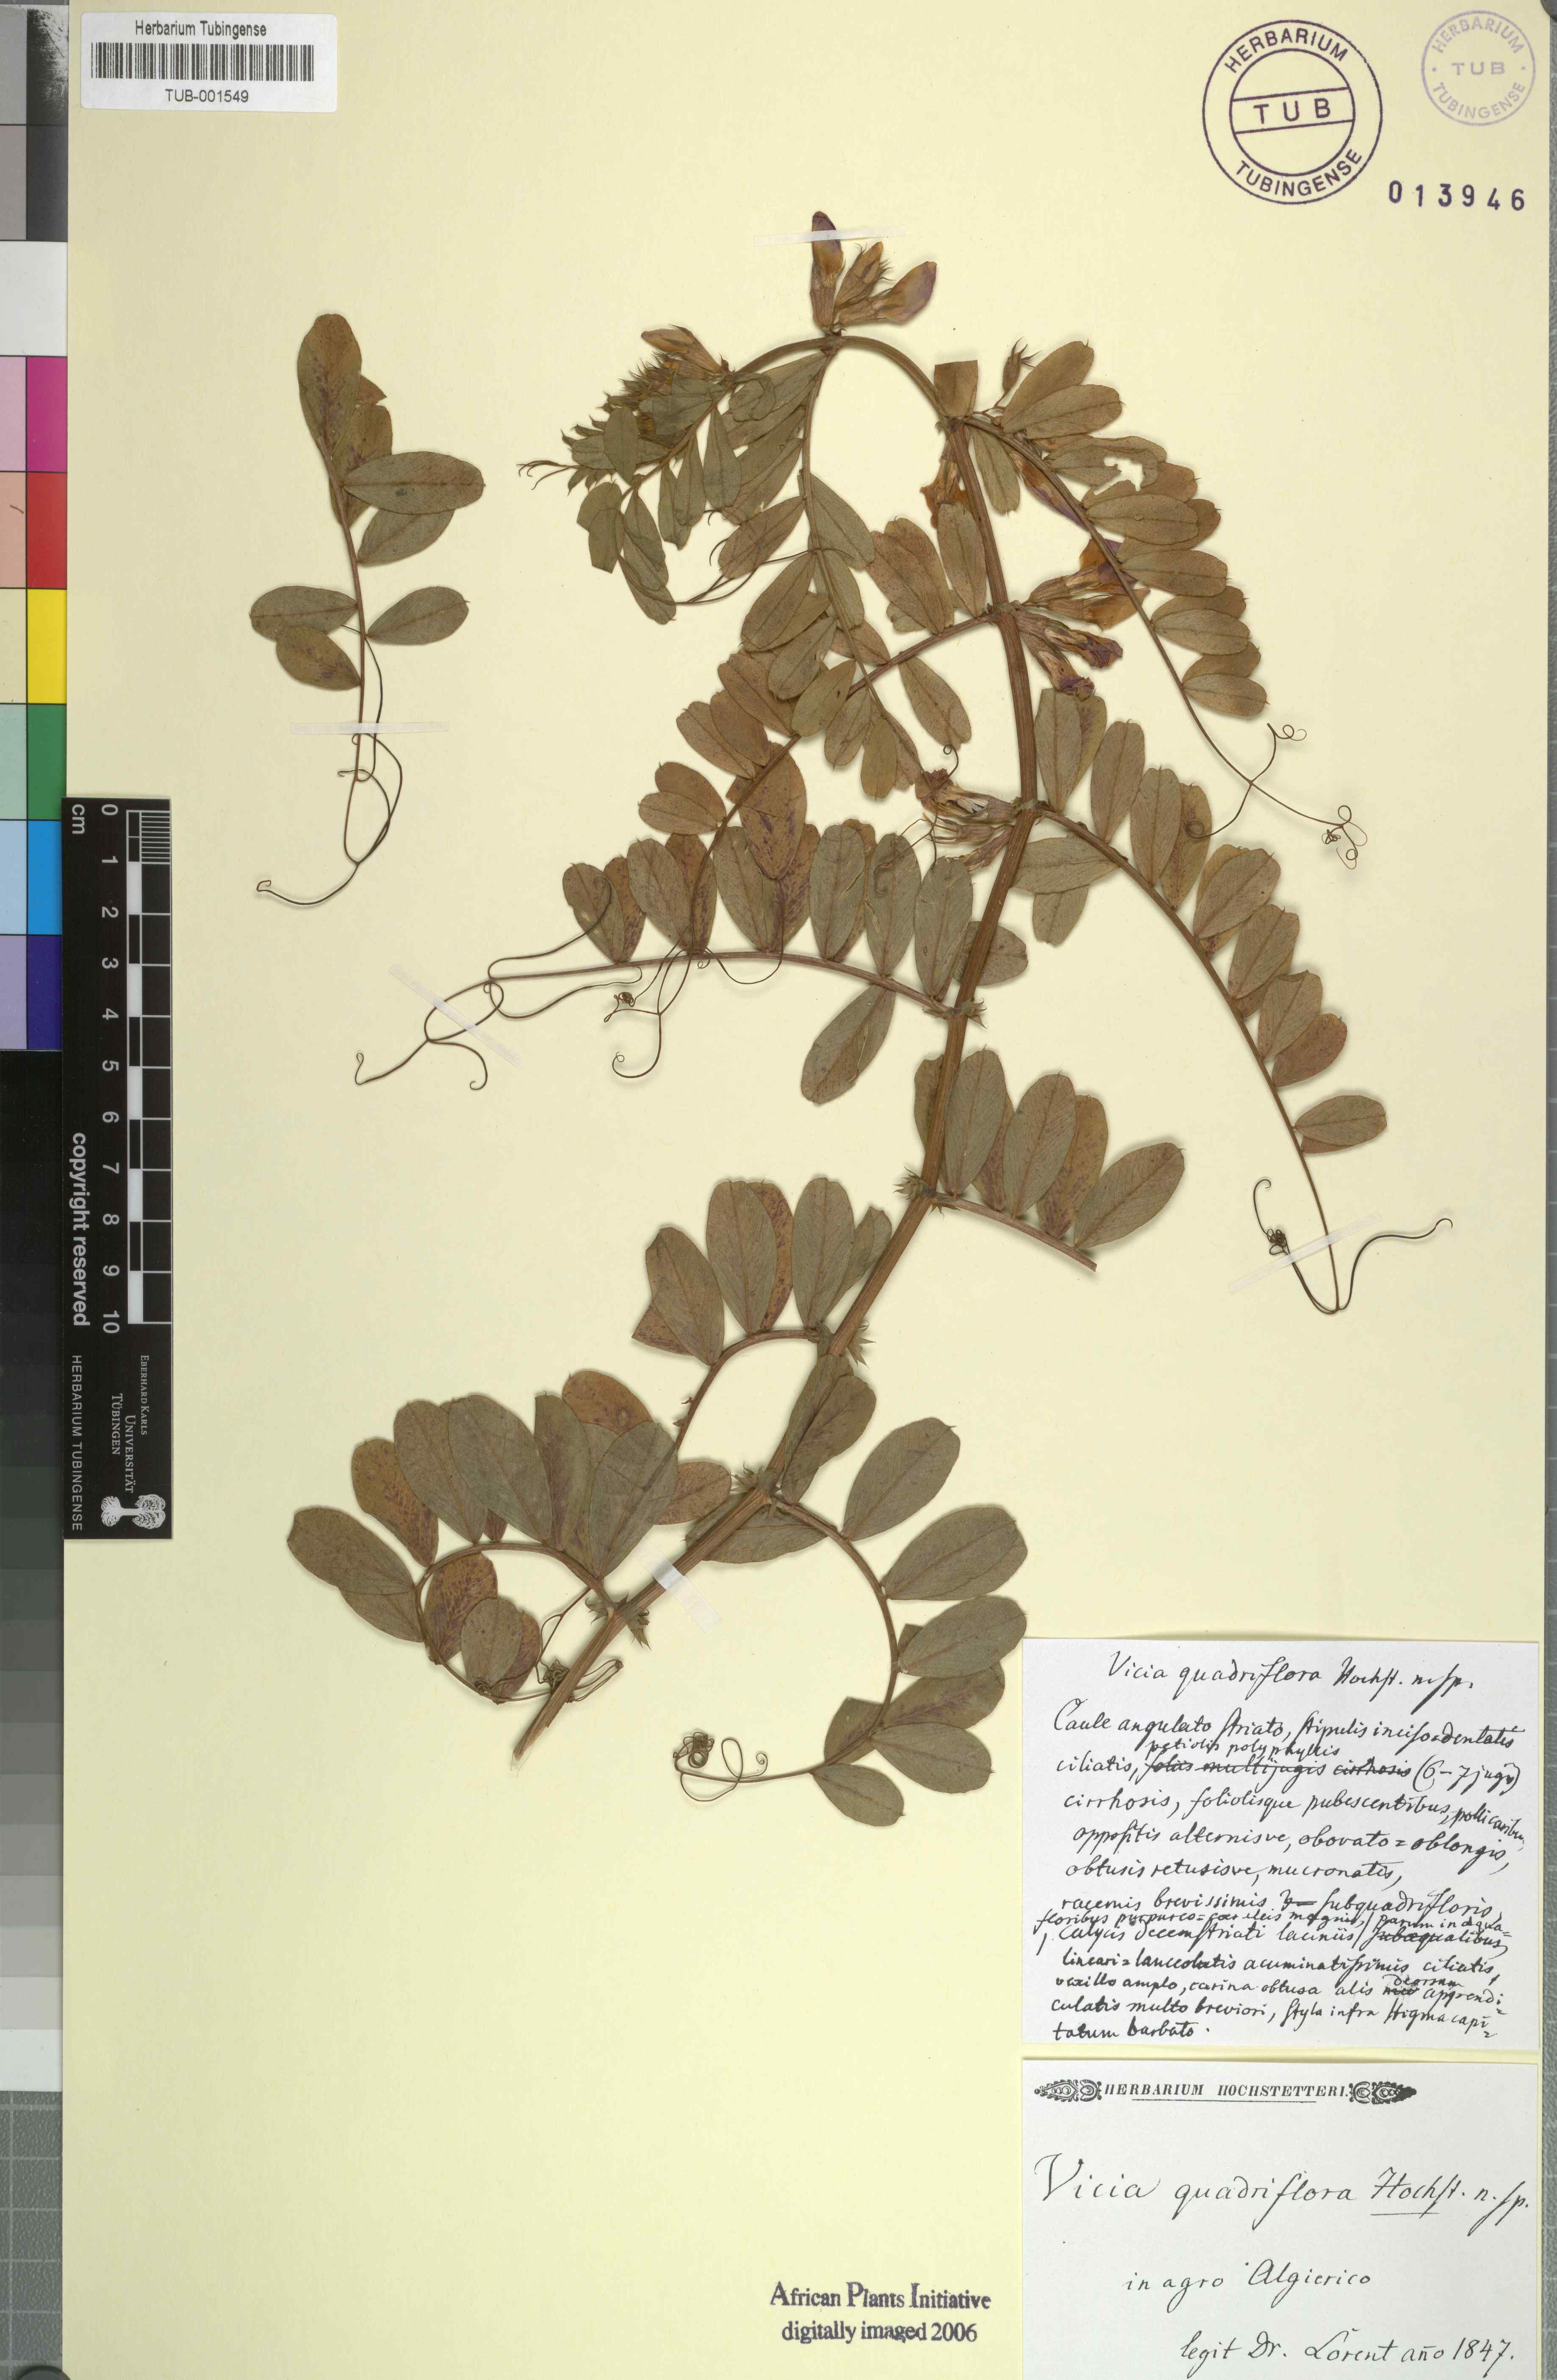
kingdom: Plantae
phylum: Tracheophyta
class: Magnoliopsida
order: Fabales
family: Fabaceae
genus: Vicia
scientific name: Vicia
